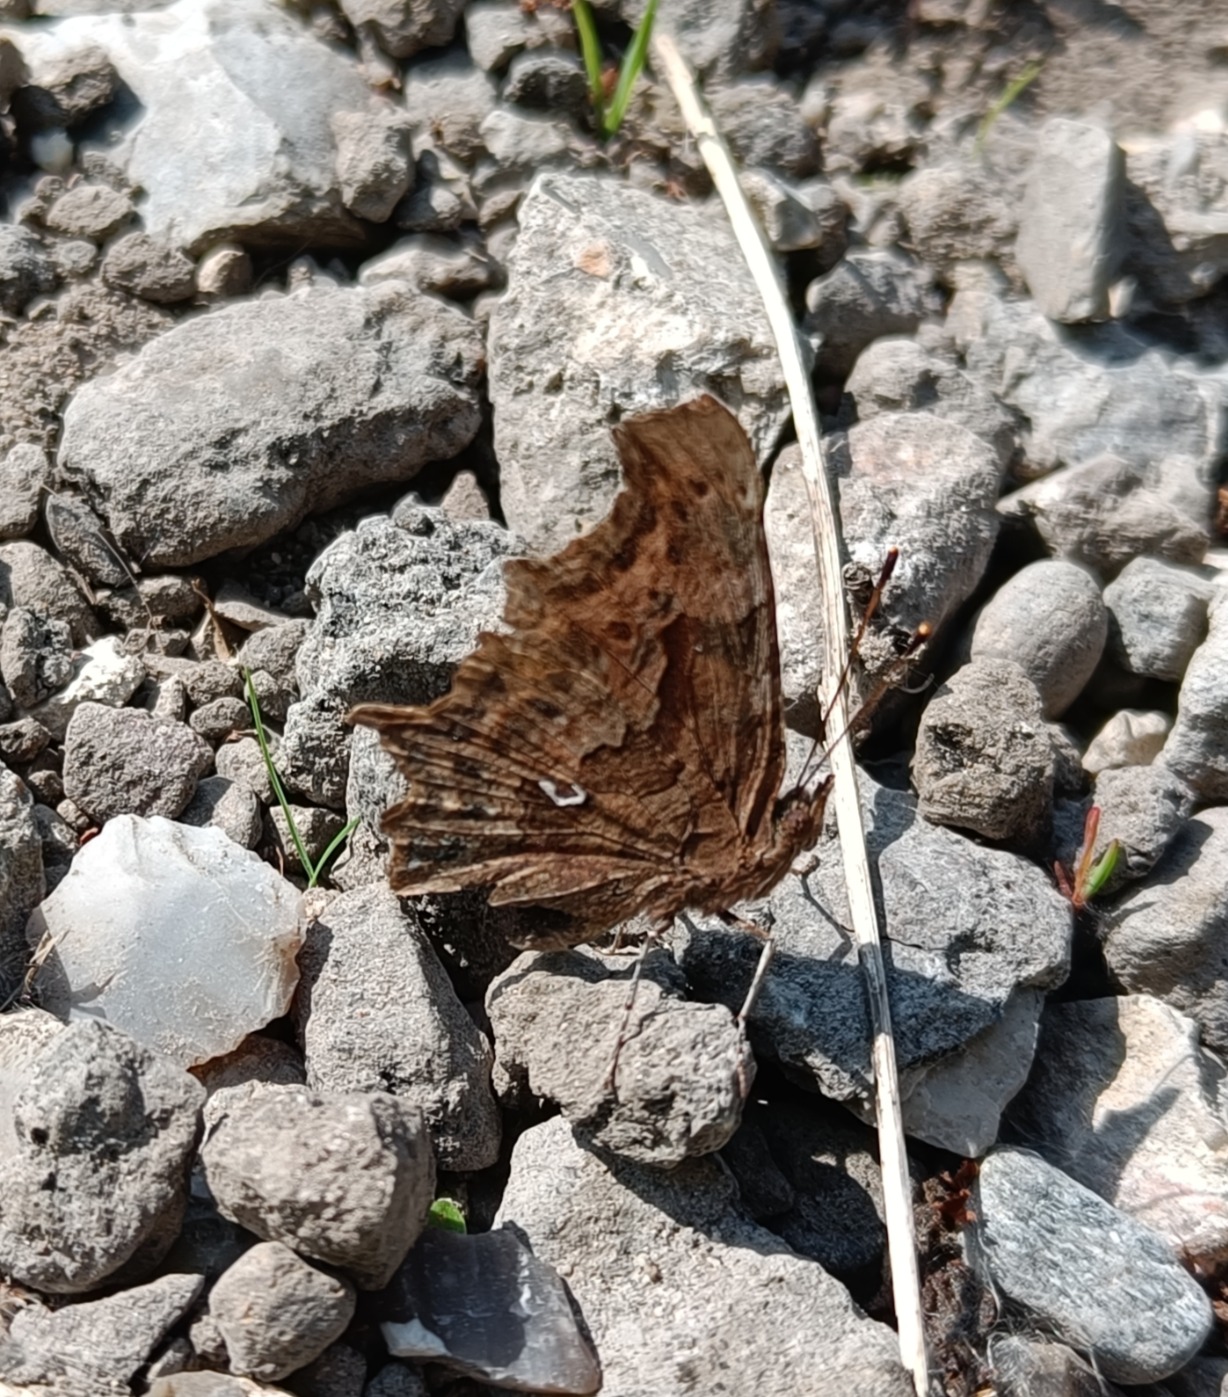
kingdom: Animalia
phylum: Arthropoda
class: Insecta
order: Lepidoptera
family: Nymphalidae
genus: Polygonia
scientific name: Polygonia c-album
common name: Det hvide C
